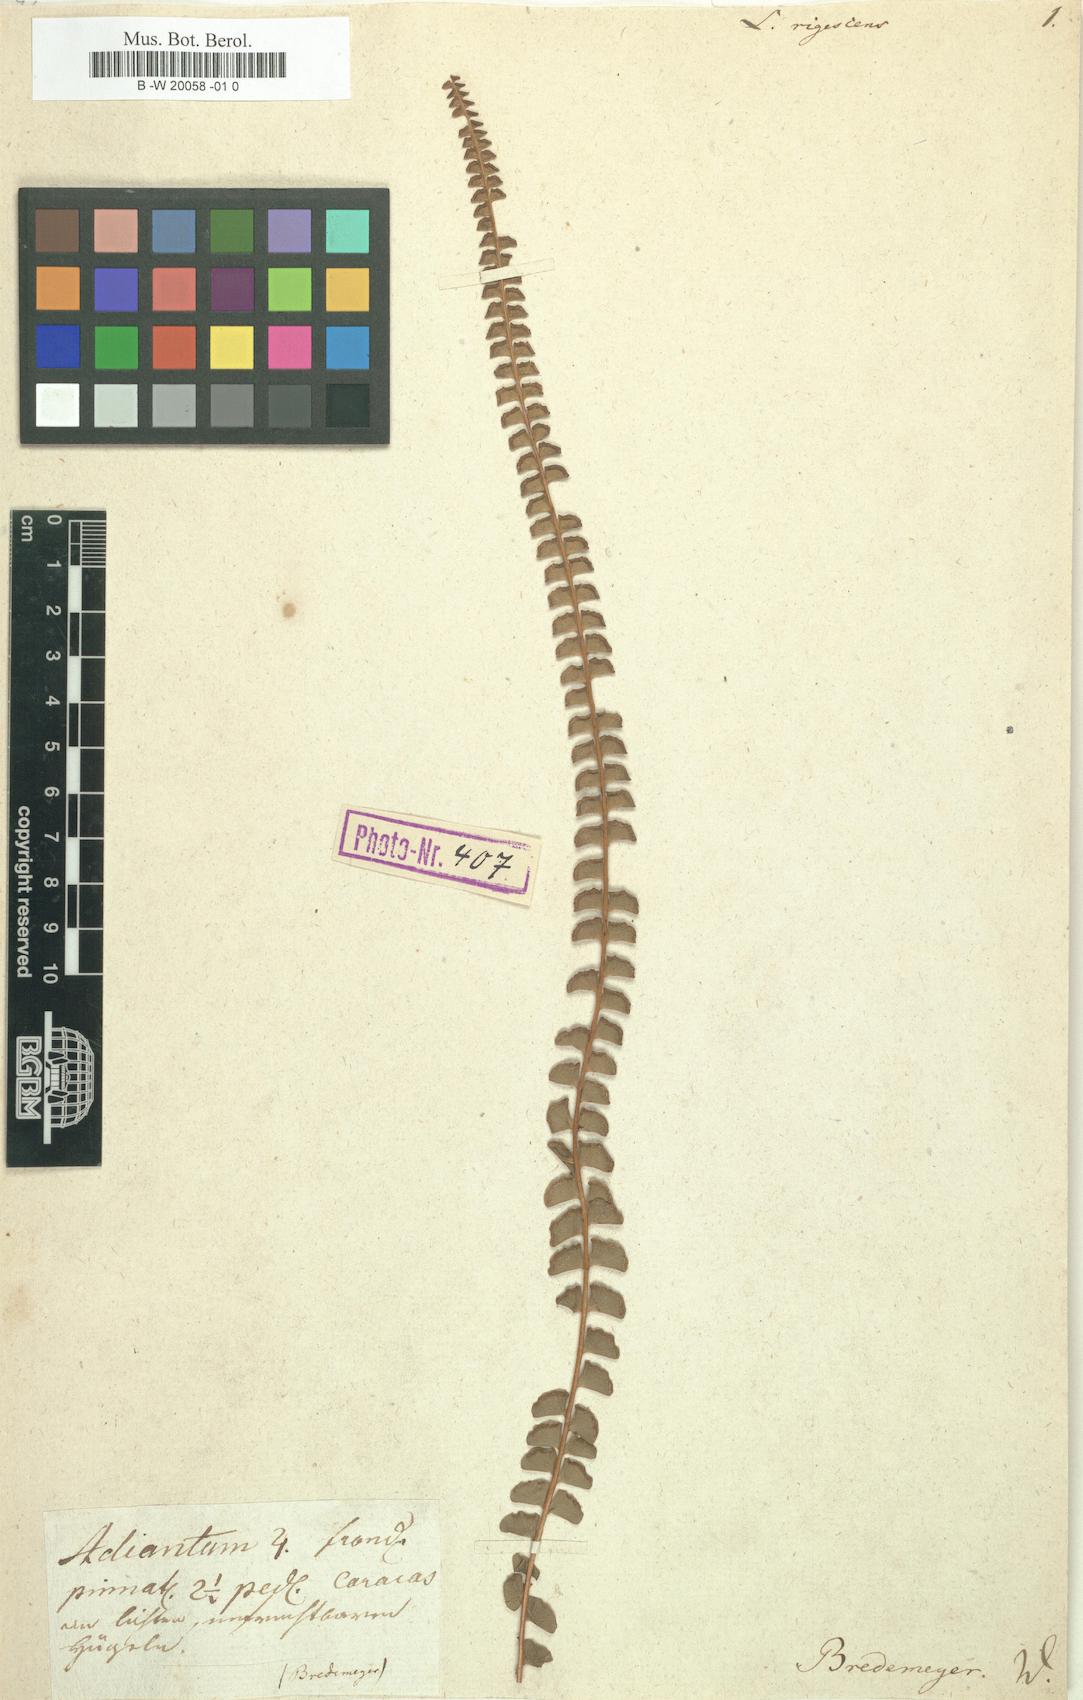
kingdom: Plantae
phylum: Tracheophyta
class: Polypodiopsida
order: Polypodiales
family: Lindsaeaceae
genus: Lindsaea
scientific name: Lindsaea stricta
